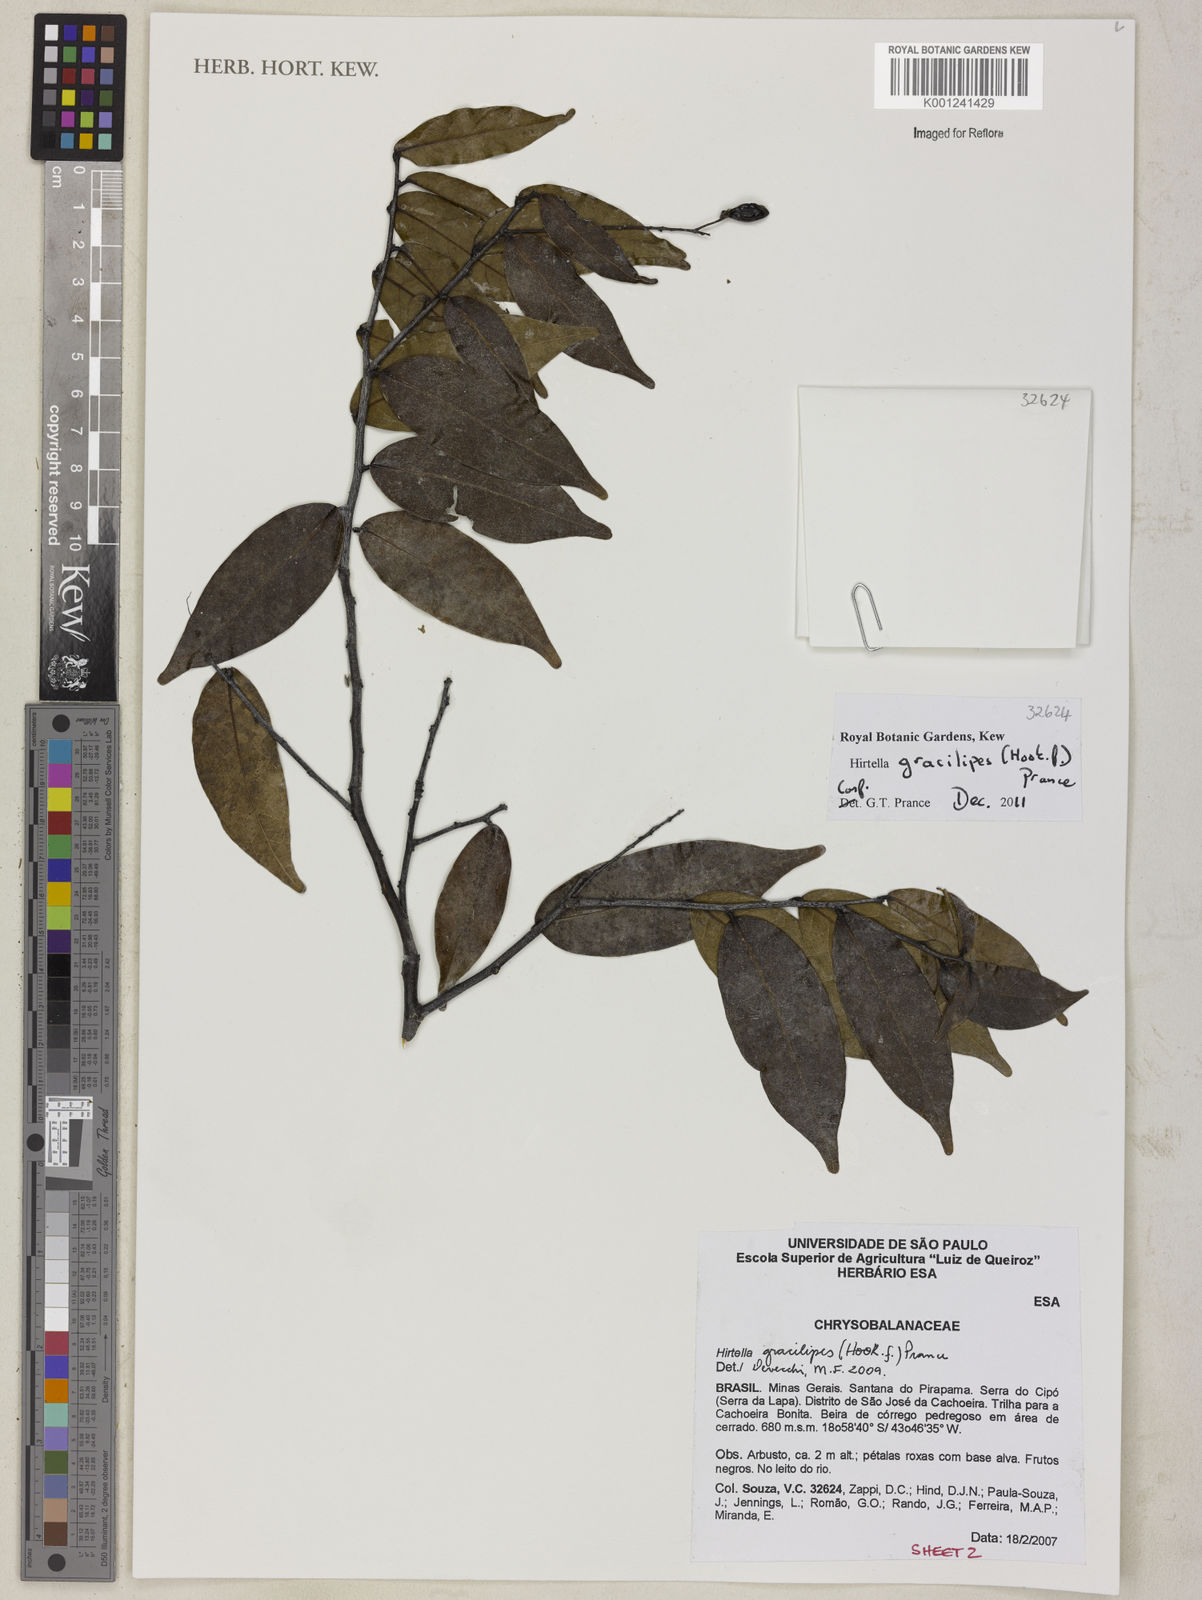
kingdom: Plantae
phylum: Tracheophyta
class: Magnoliopsida
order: Malpighiales
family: Chrysobalanaceae
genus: Hirtella
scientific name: Hirtella gracilipes
